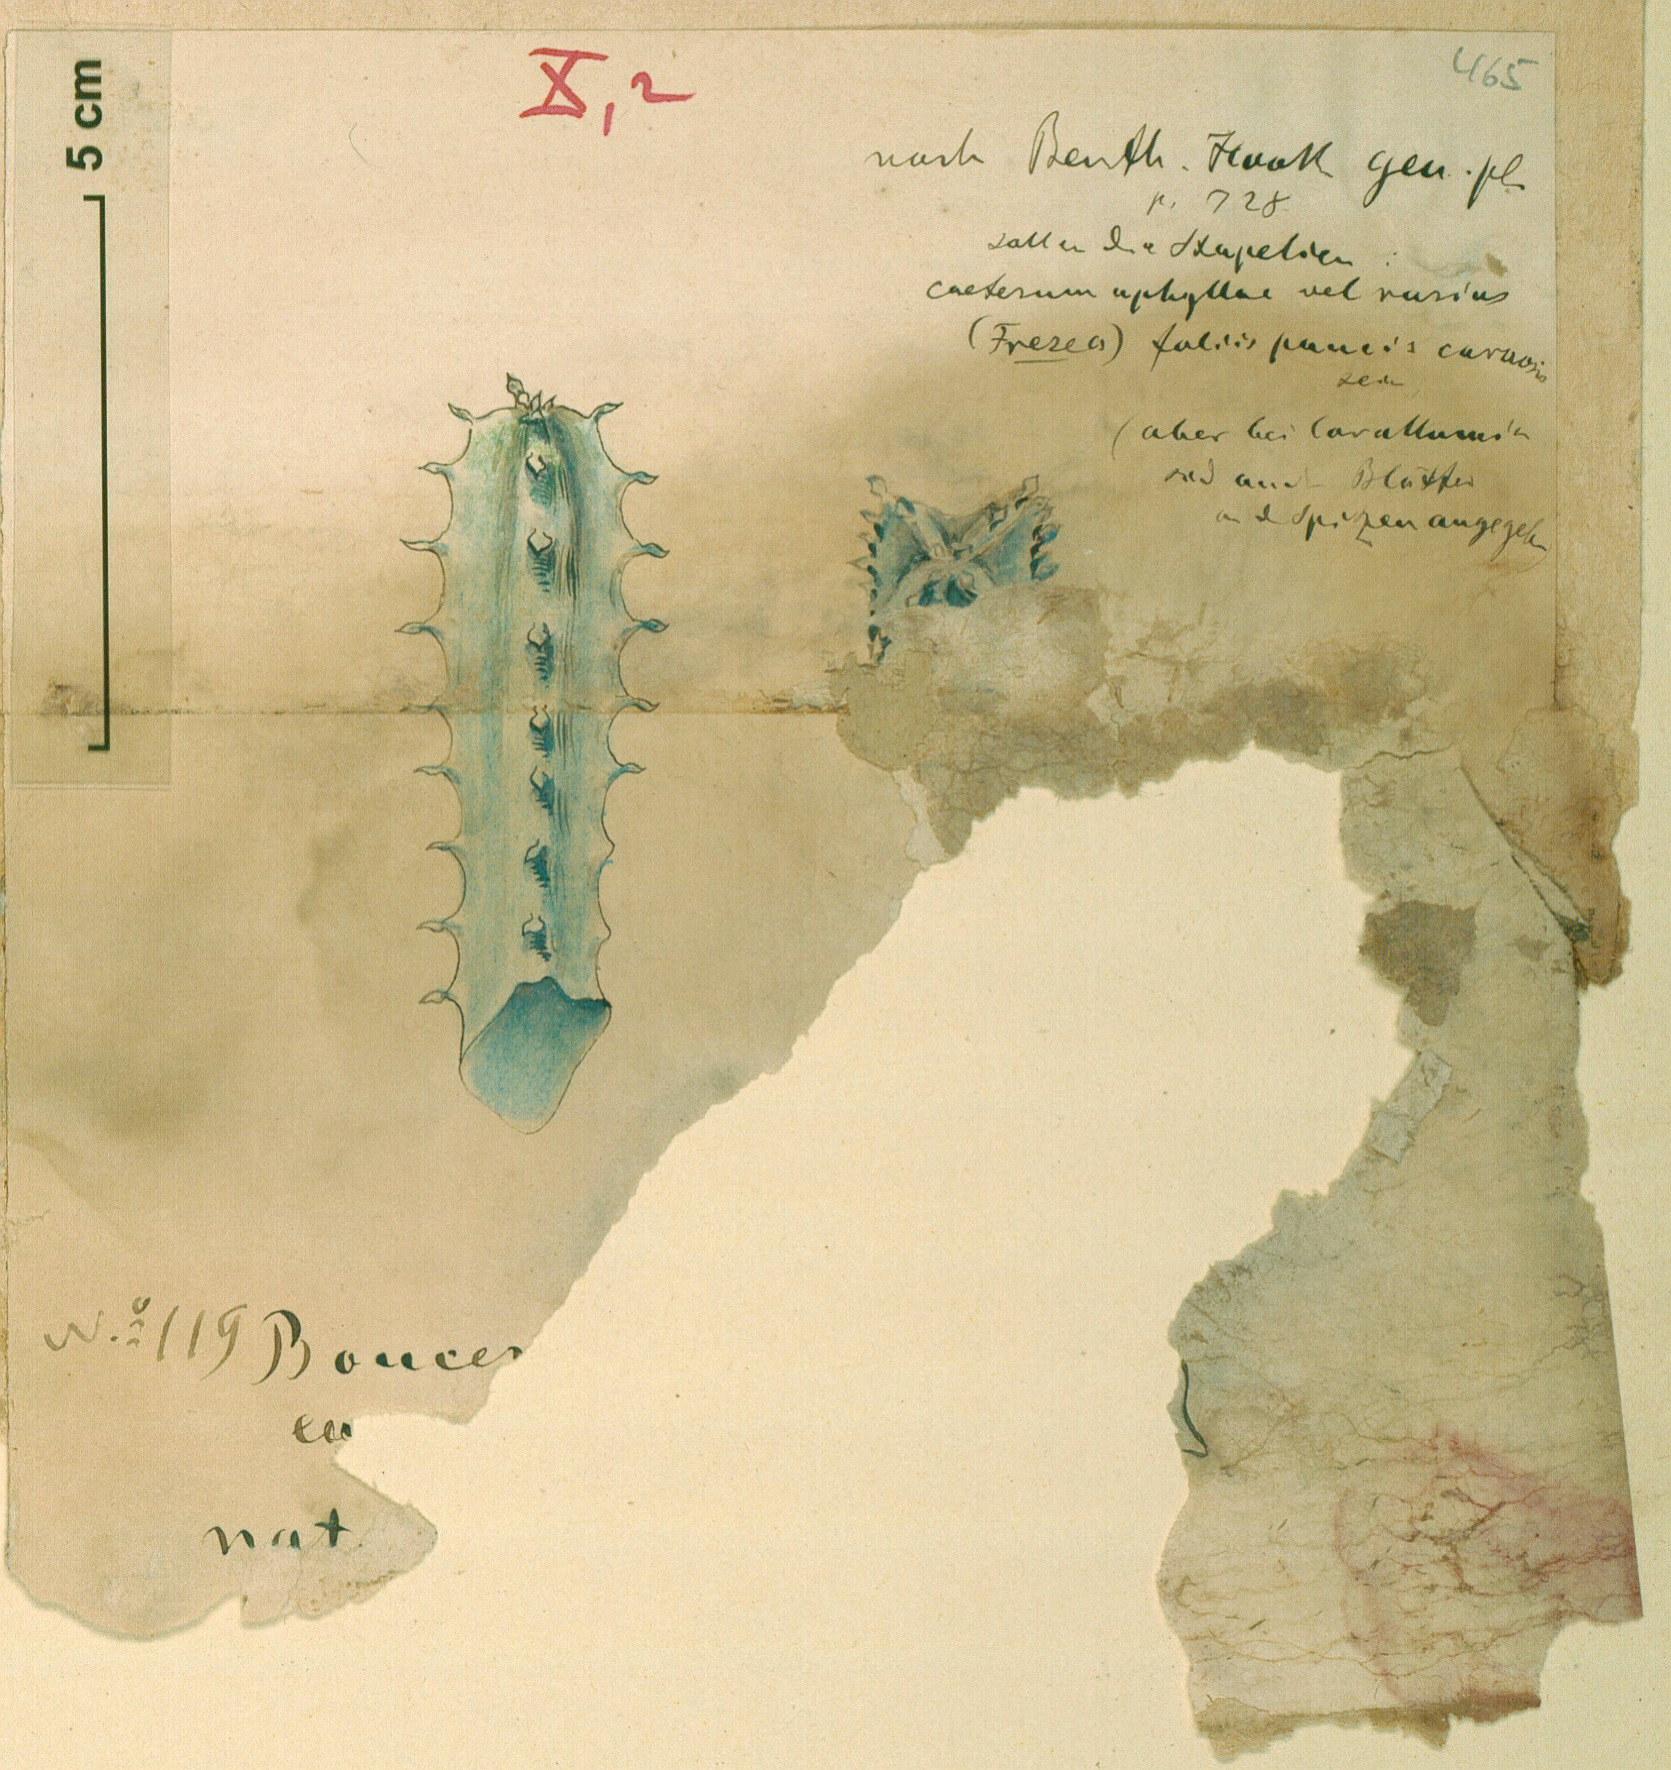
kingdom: Plantae
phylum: Tracheophyta
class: Magnoliopsida
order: Gentianales
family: Apocynaceae
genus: Ceropegia
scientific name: Ceropegia adenensis
